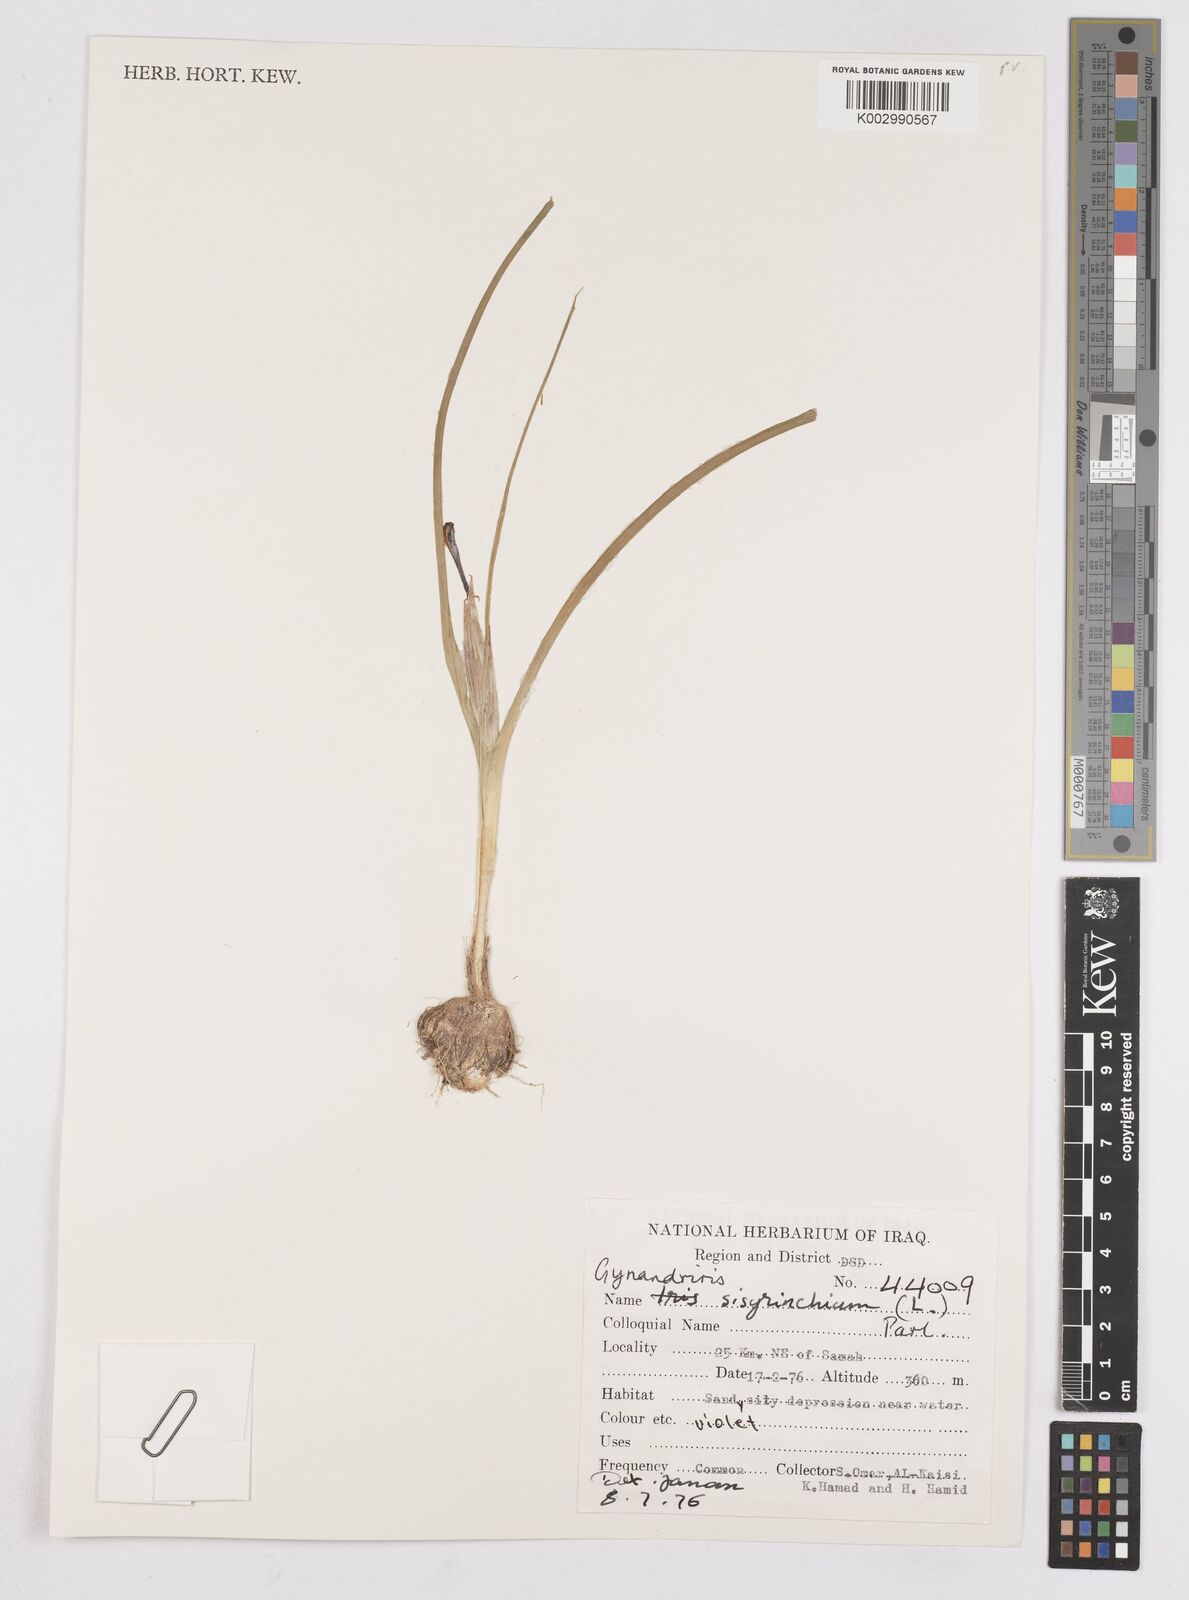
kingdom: Plantae
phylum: Tracheophyta
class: Liliopsida
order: Asparagales
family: Iridaceae
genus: Moraea
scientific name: Moraea sisyrinchium
